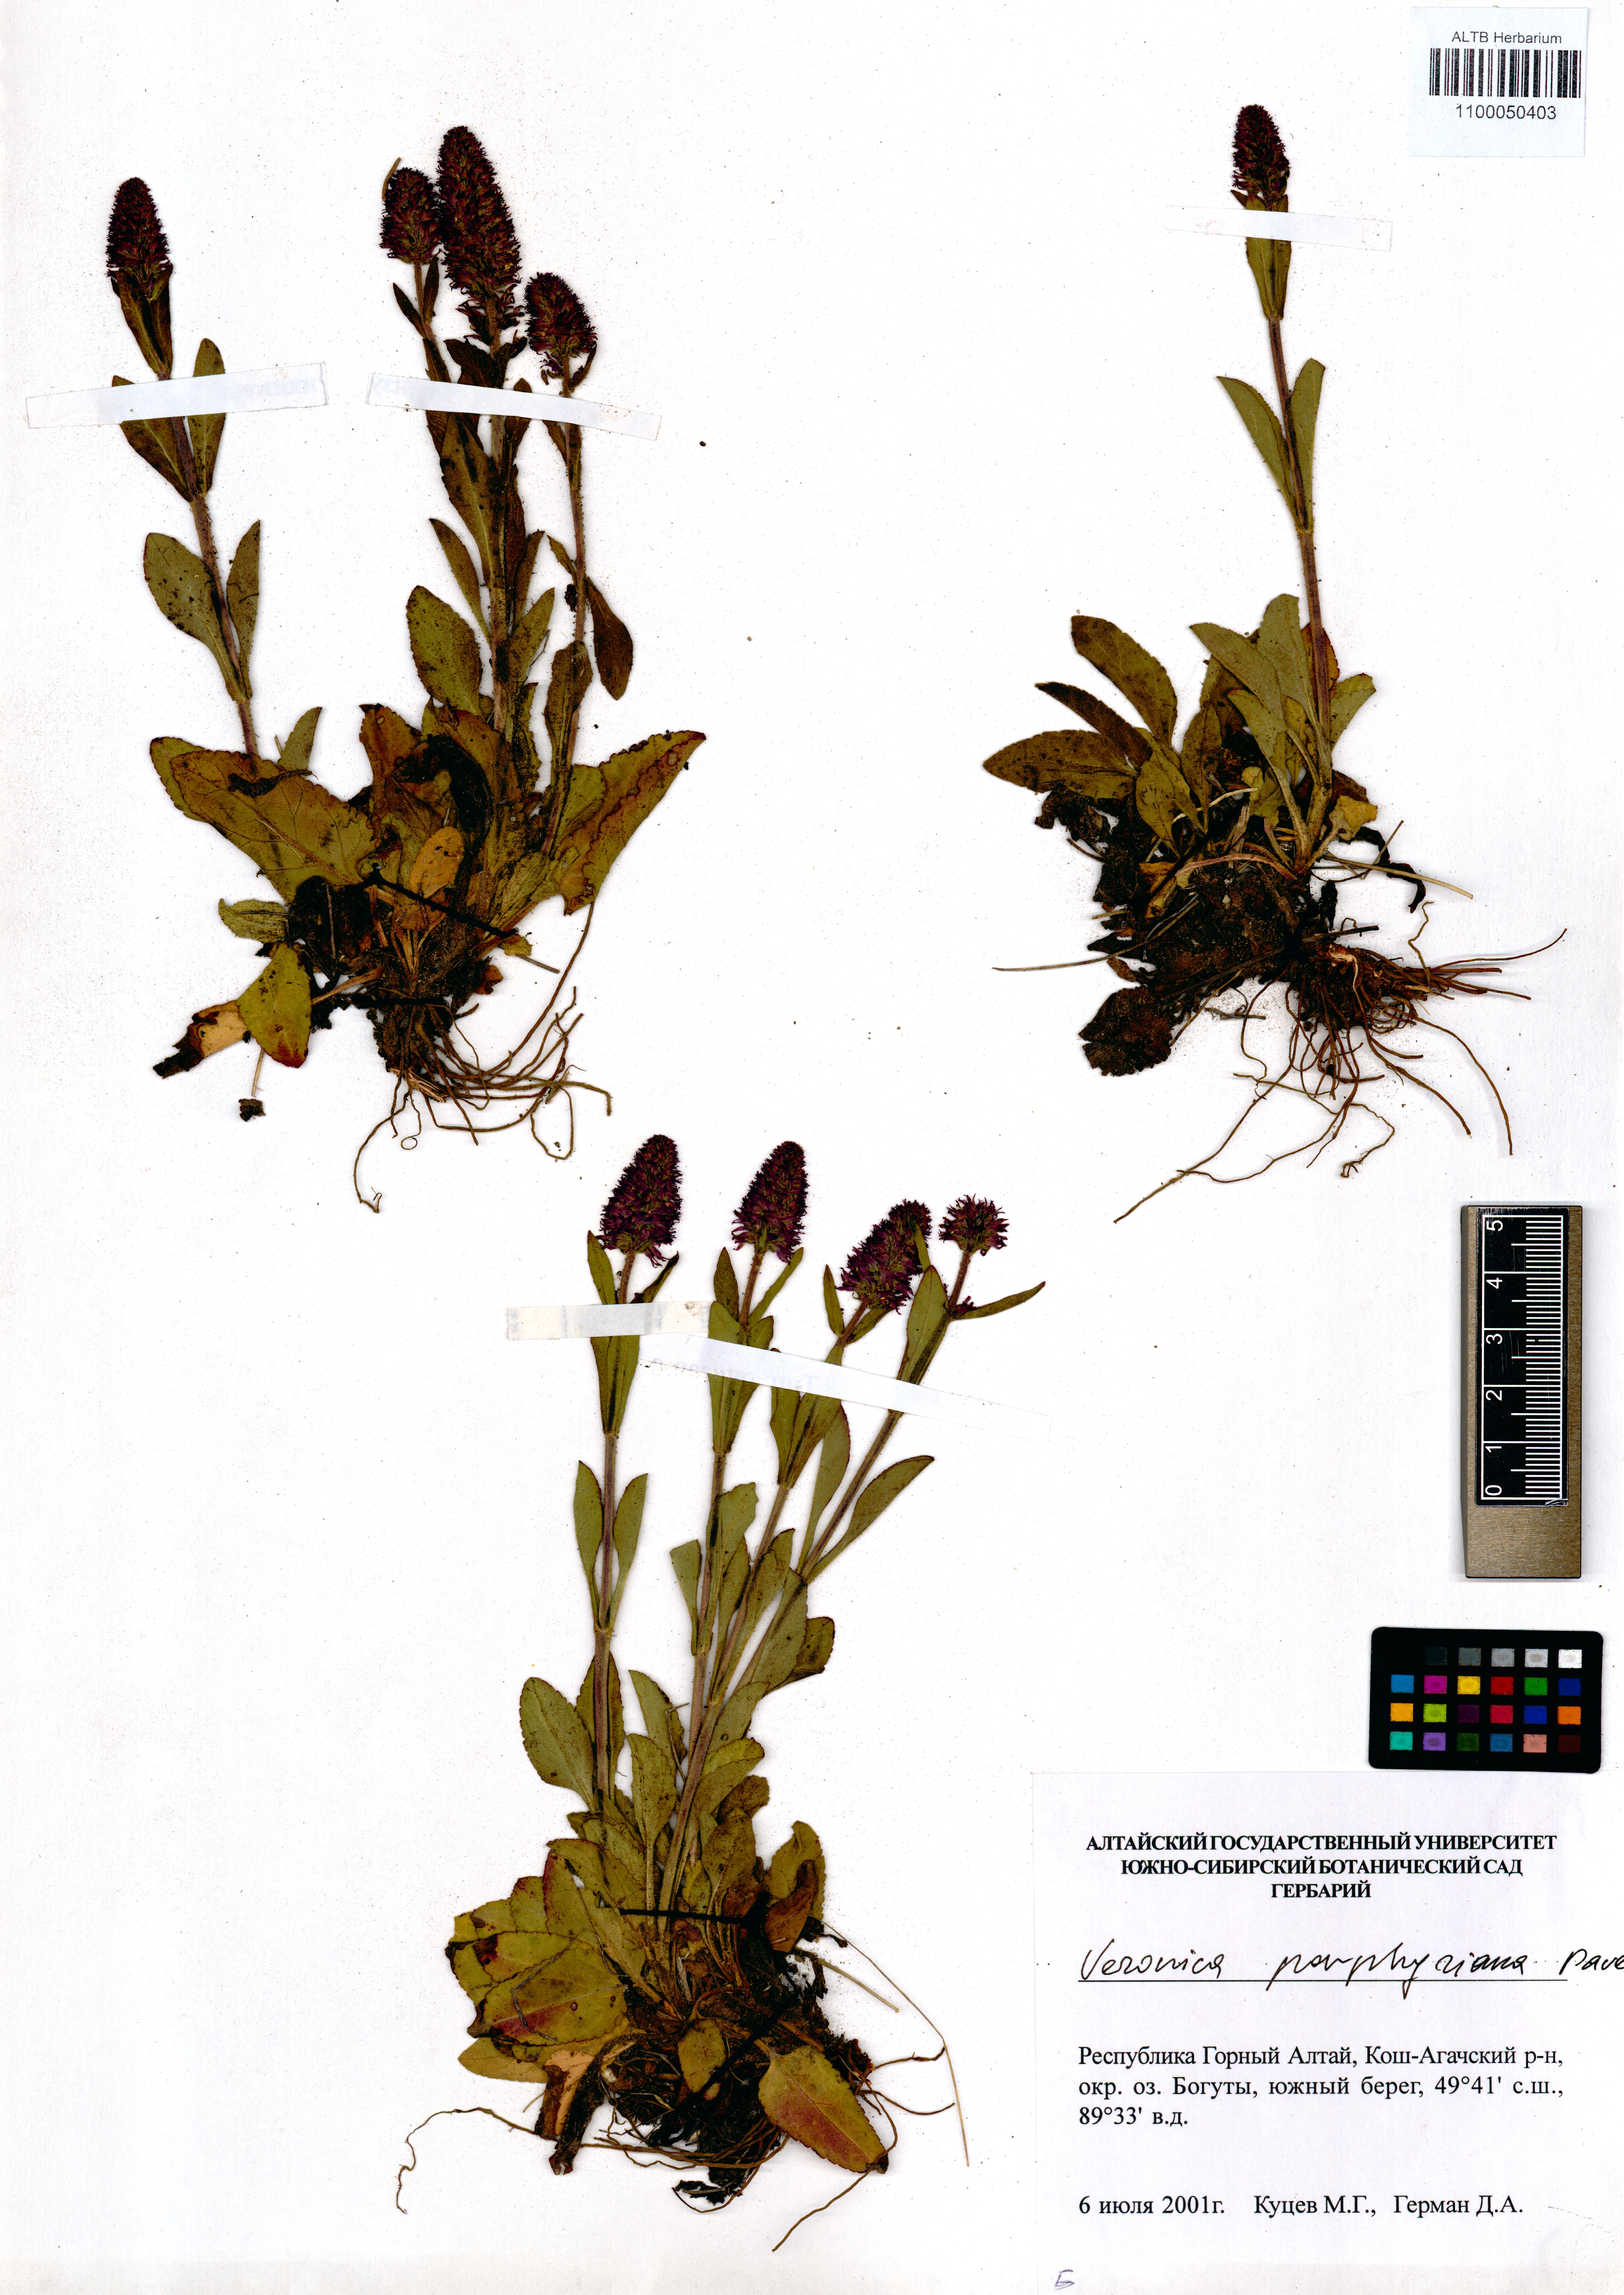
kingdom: Plantae
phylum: Tracheophyta
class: Magnoliopsida
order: Lamiales
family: Plantaginaceae
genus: Veronica
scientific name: Veronica porphyriana
